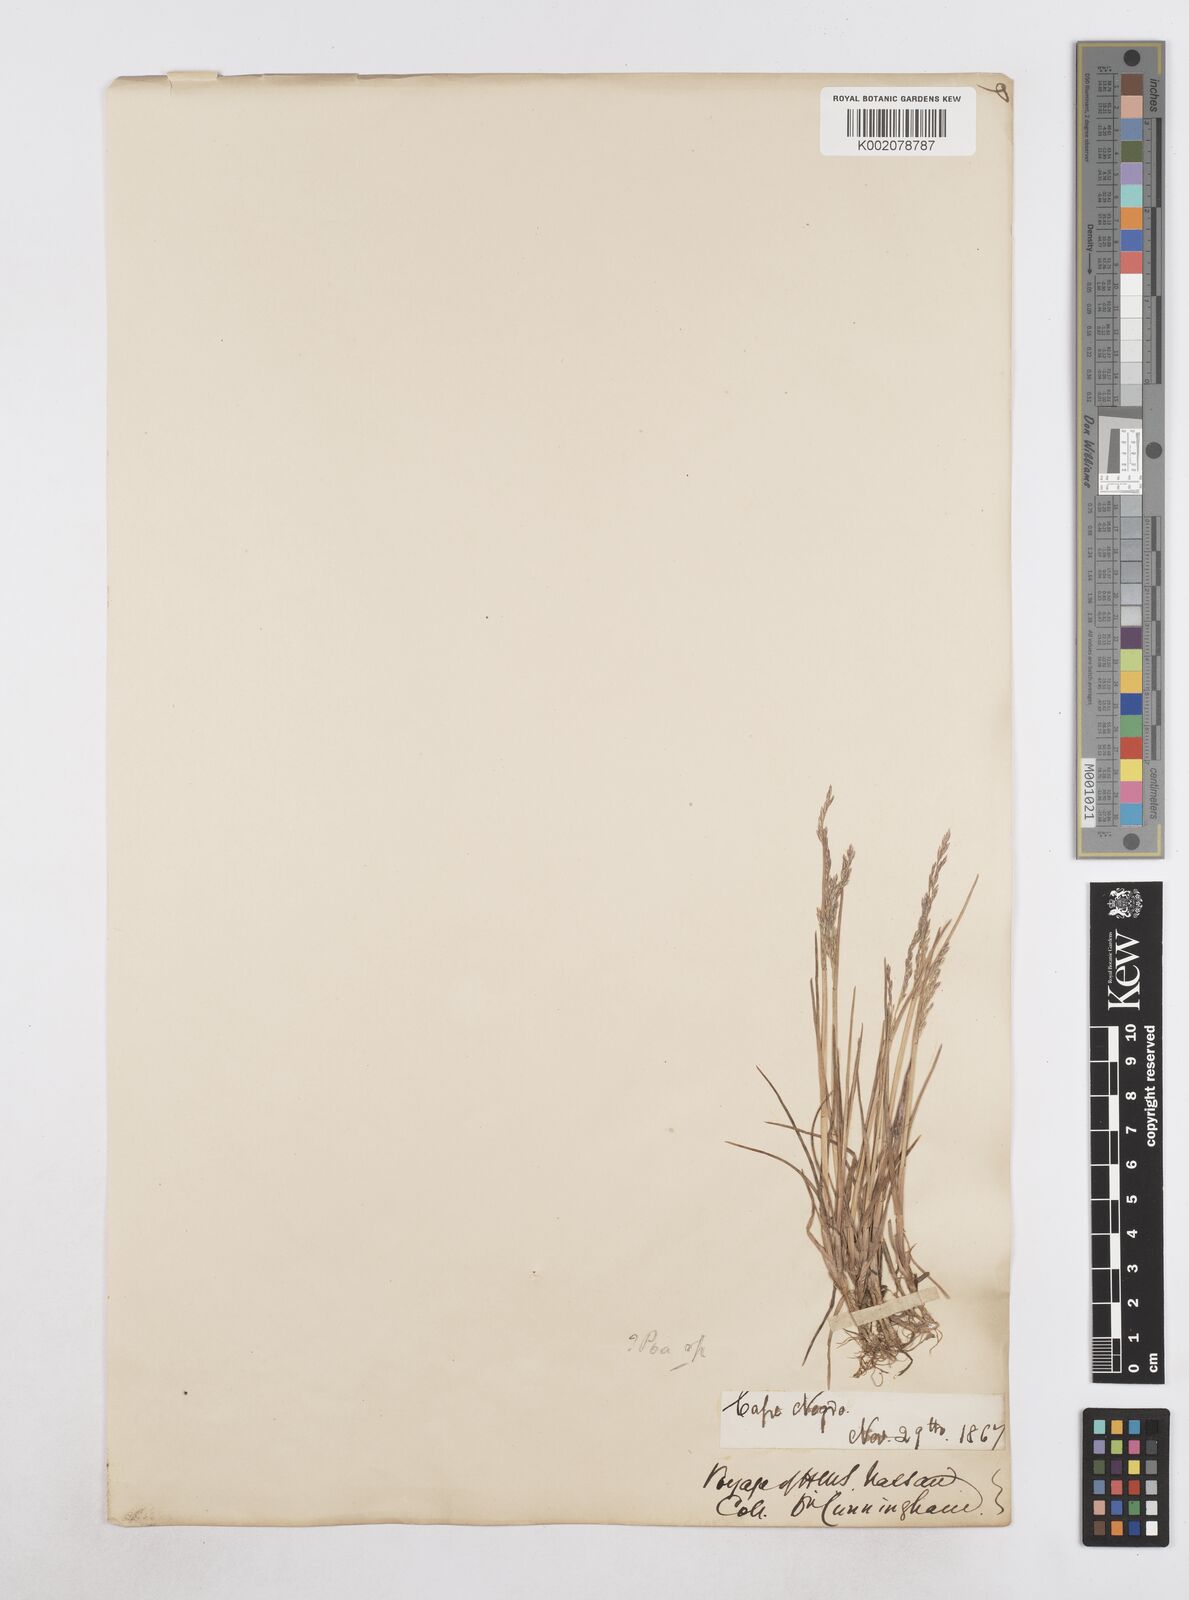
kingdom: Plantae
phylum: Tracheophyta
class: Liliopsida
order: Poales
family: Poaceae
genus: Poa
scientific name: Poa
